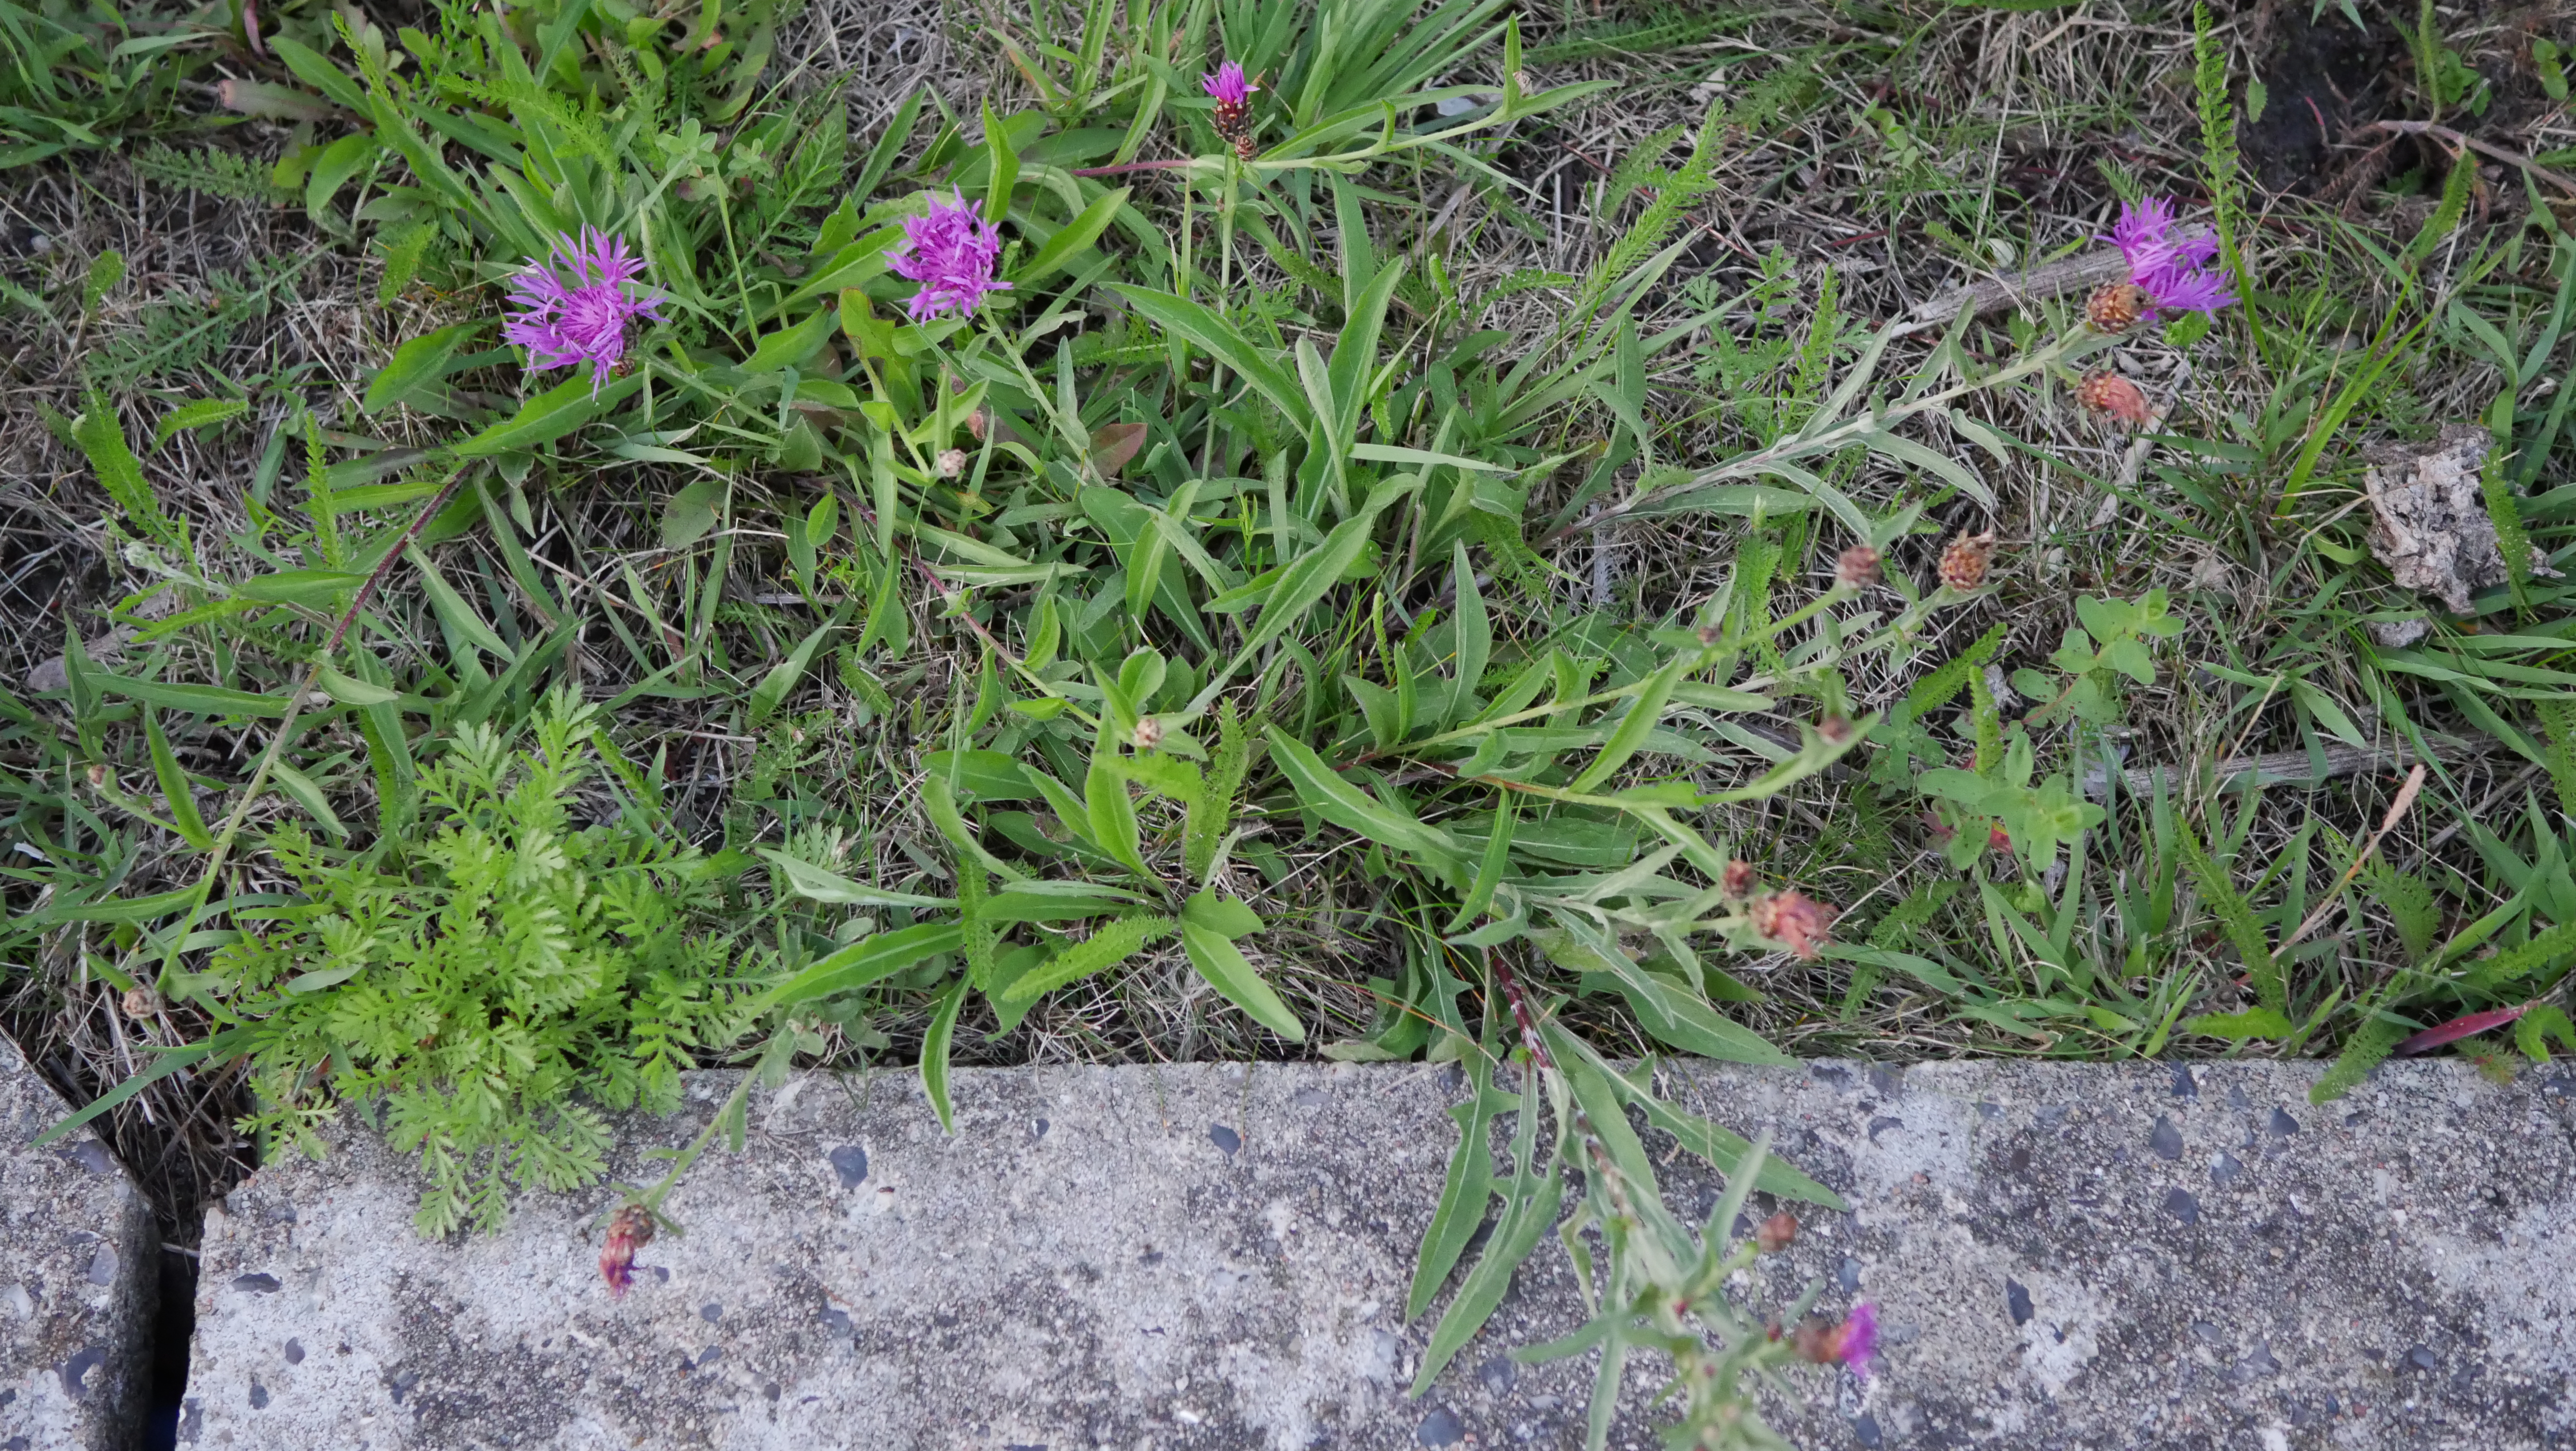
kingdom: Plantae
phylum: Tracheophyta
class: Magnoliopsida
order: Asterales
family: Asteraceae
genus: Centaurea
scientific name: Centaurea jacea
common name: Almindelig knopurt
